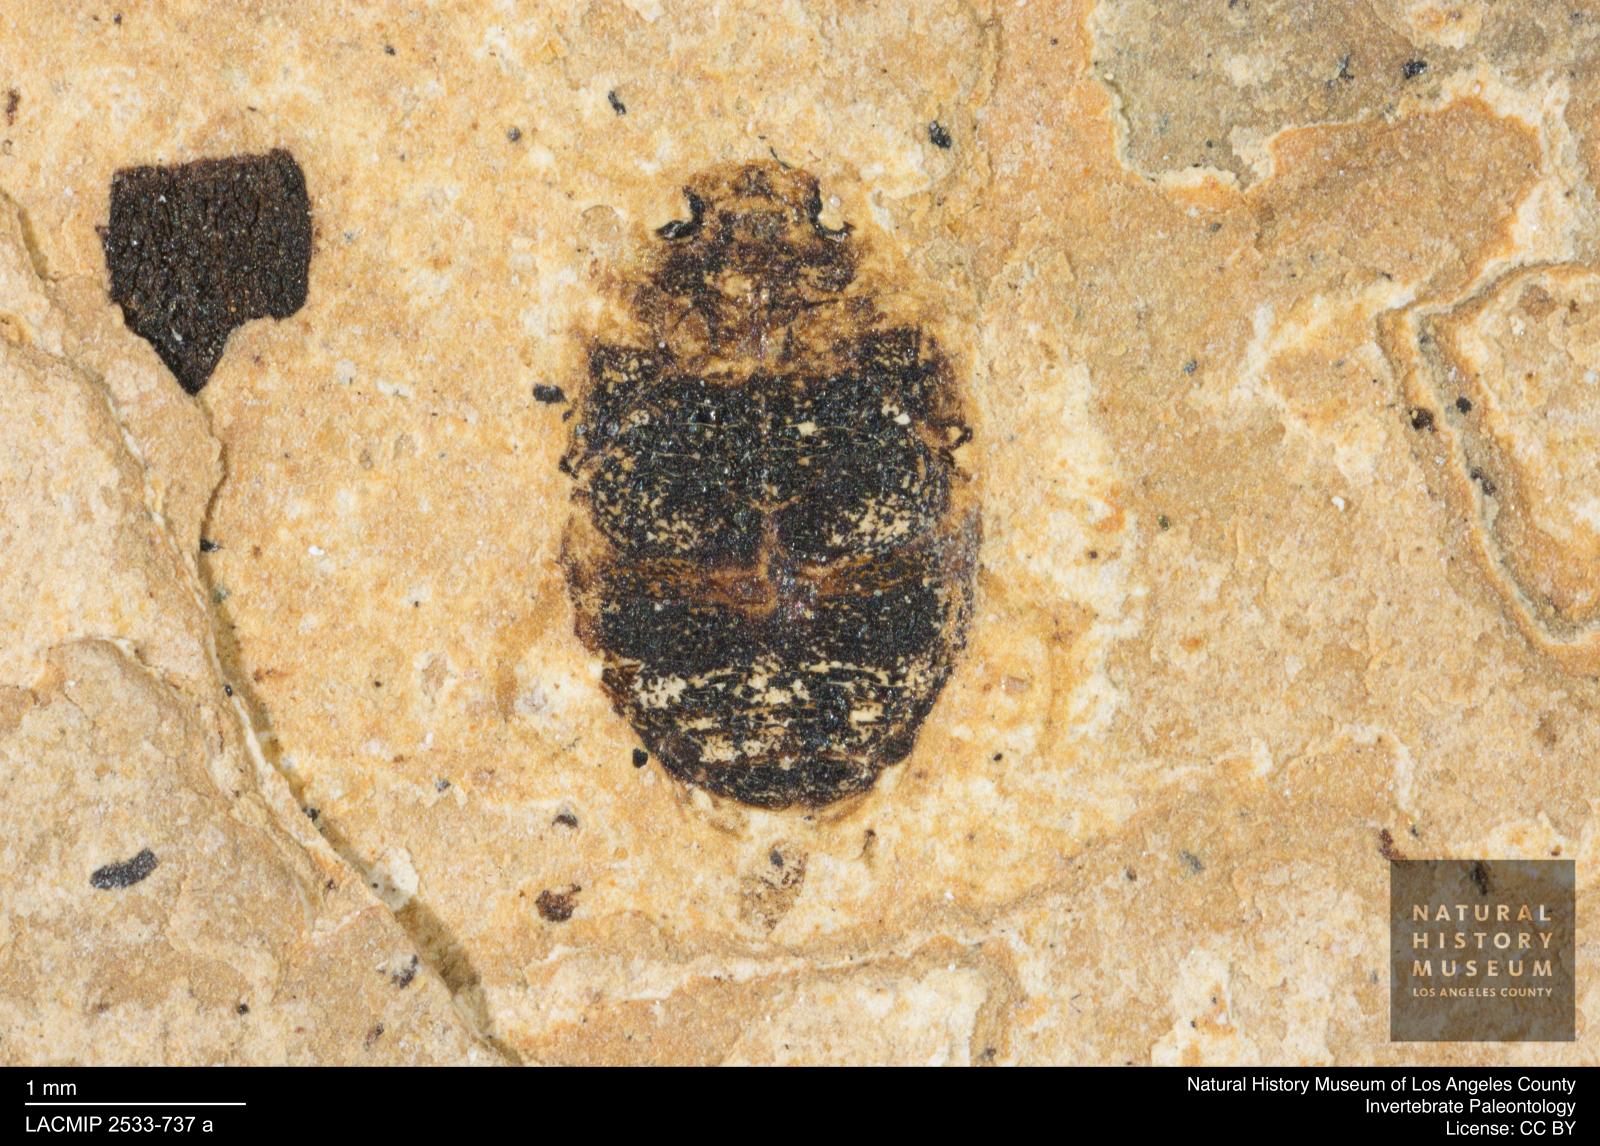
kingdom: Animalia
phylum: Arthropoda
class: Insecta
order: Coleoptera
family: Dytiscidae
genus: Oreodytes
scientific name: Oreodytes cryptolineatus
